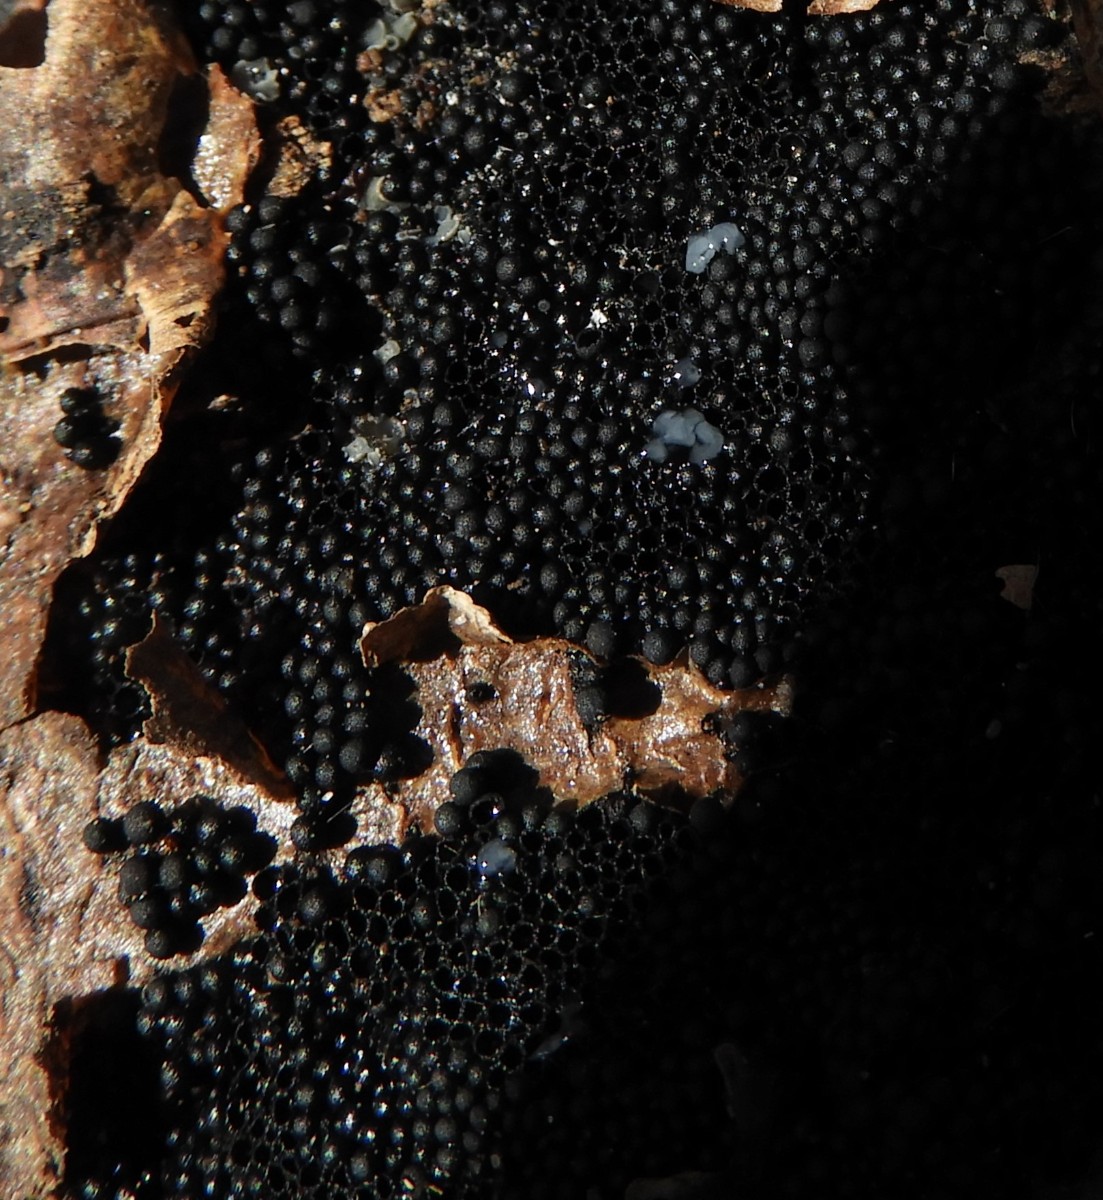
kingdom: Fungi
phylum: Ascomycota
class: Sordariomycetes
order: Sordariales
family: Helminthosphaeriaceae
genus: Ruzenia
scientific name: Ruzenia spermoides
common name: glat børstekerne
